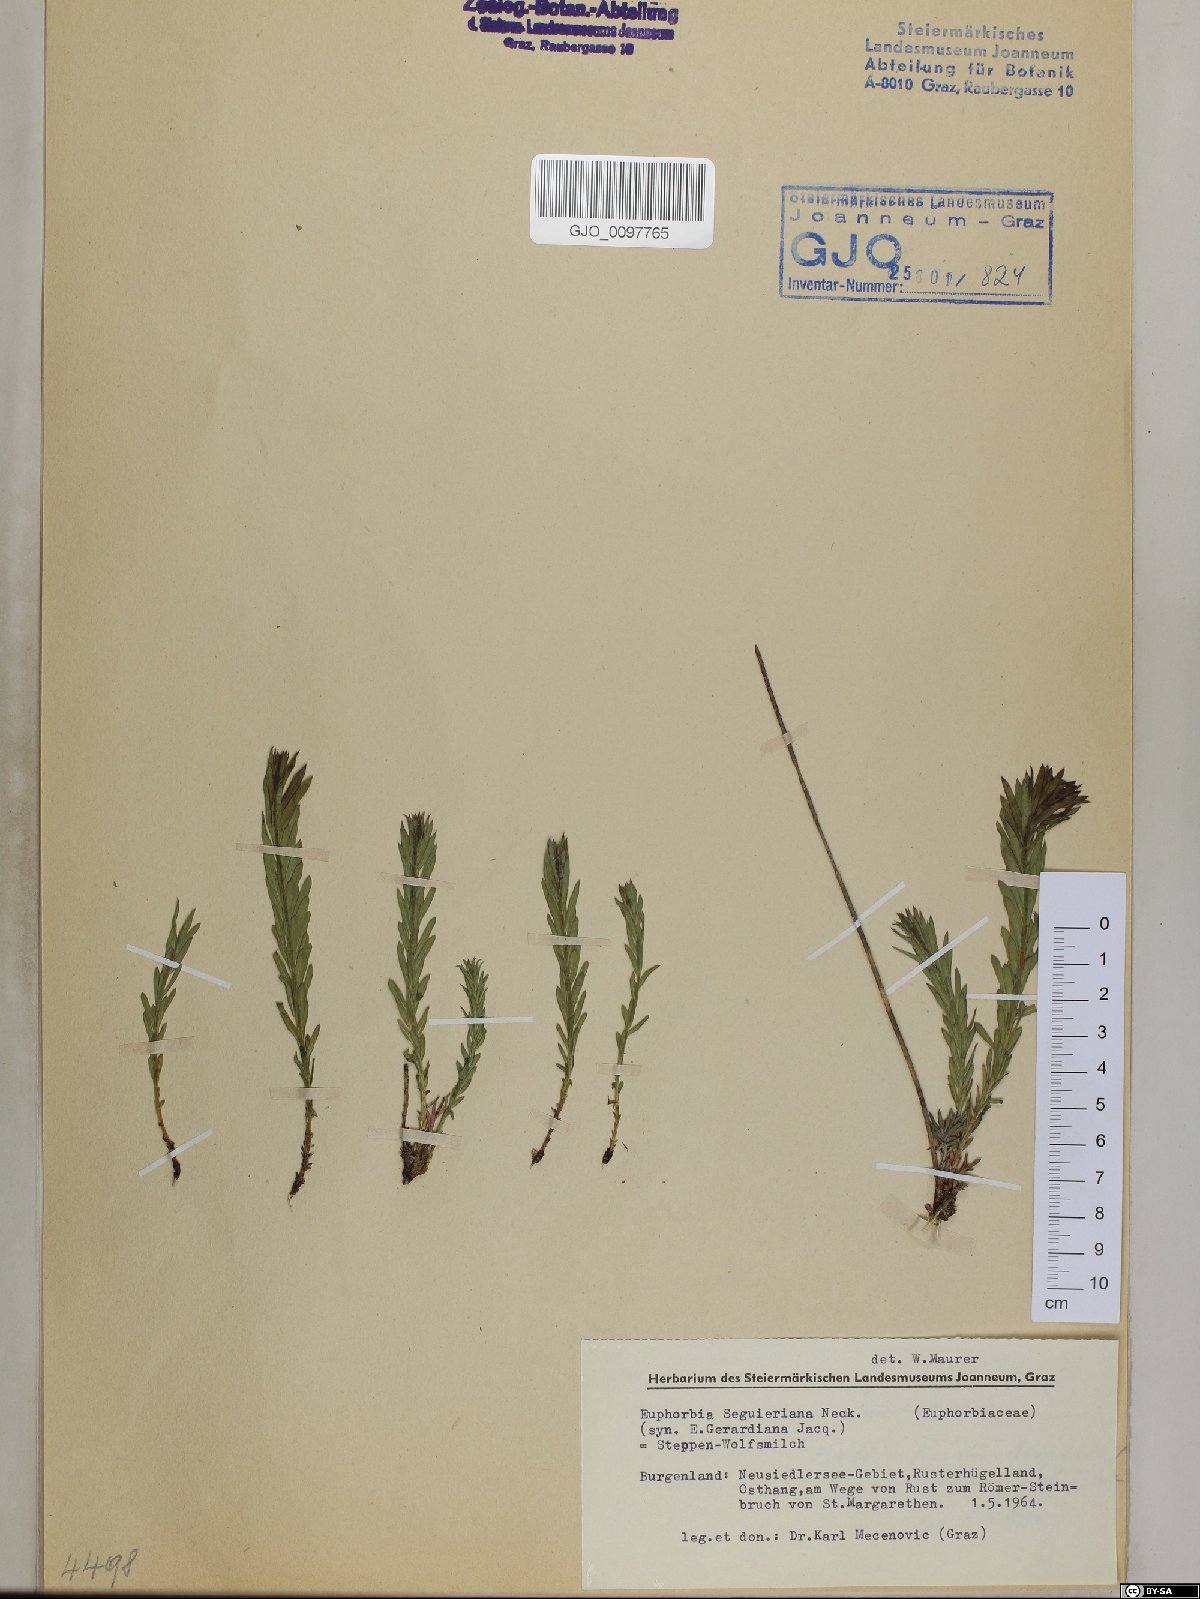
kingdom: Plantae
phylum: Tracheophyta
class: Magnoliopsida
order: Malpighiales
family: Euphorbiaceae
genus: Euphorbia
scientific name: Euphorbia seguieriana
